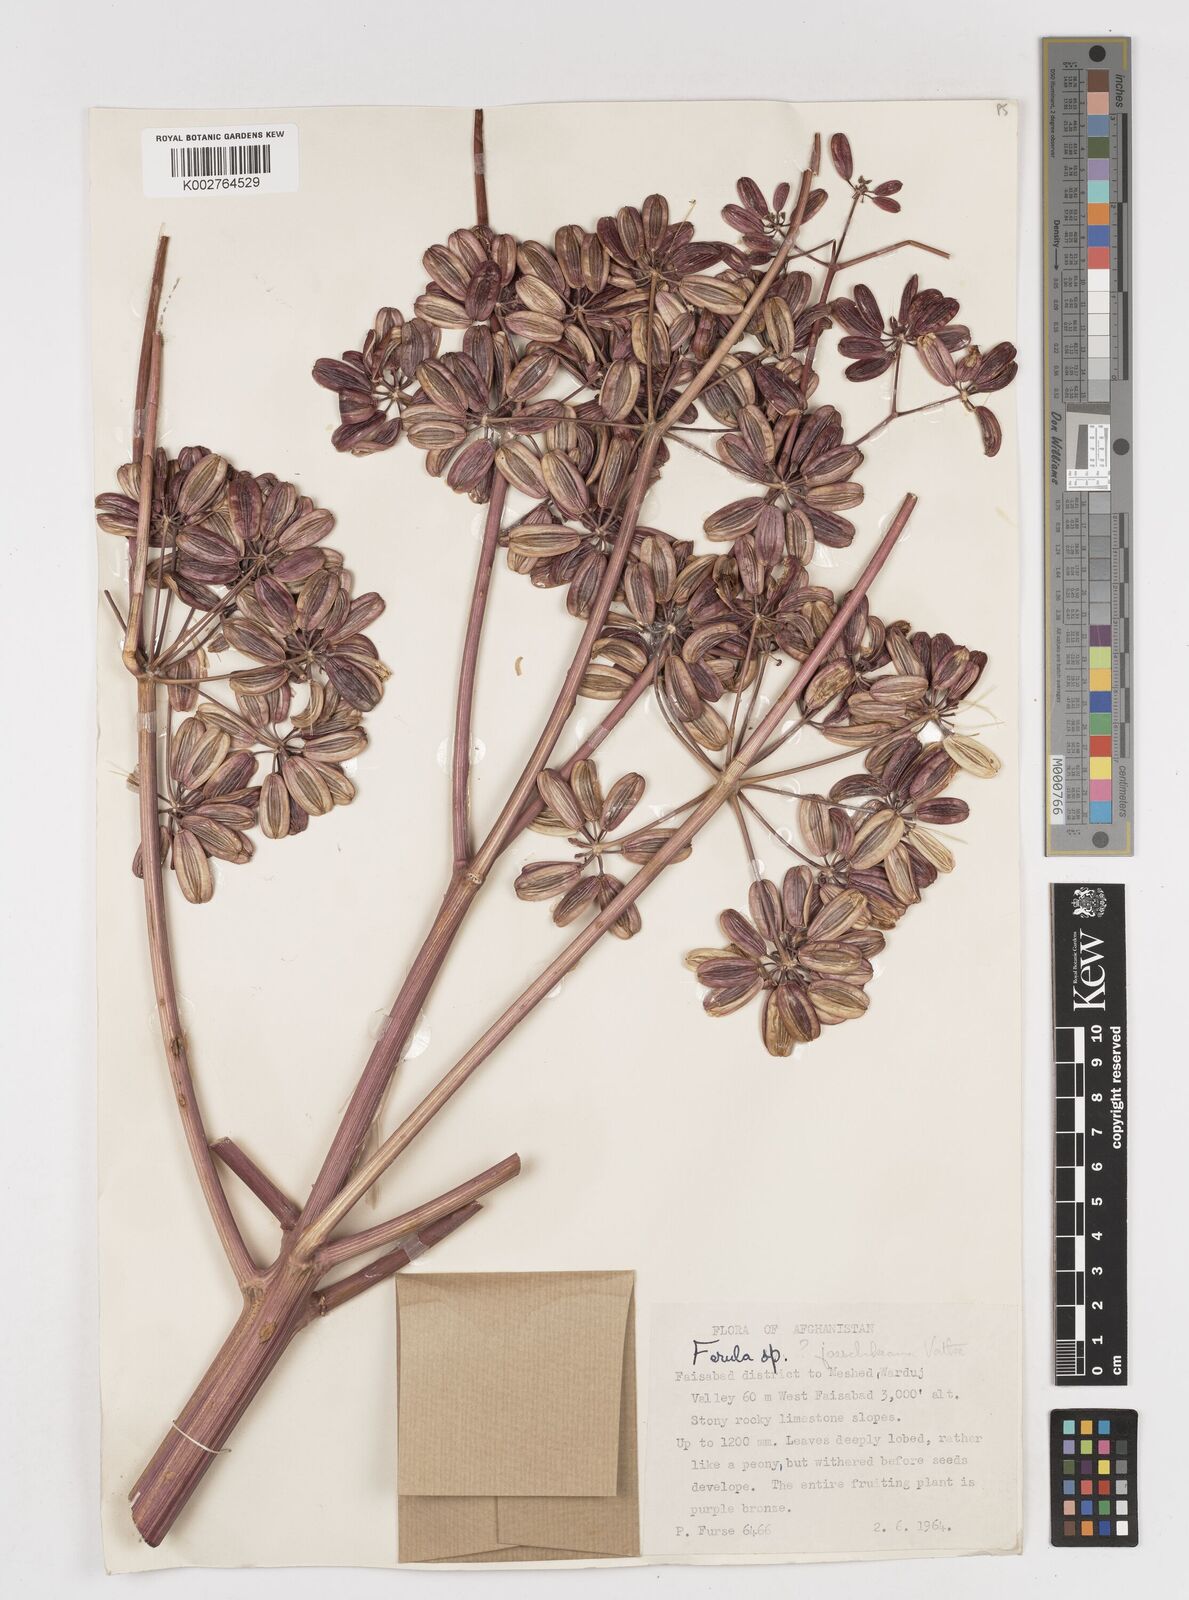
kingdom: Plantae
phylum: Tracheophyta
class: Magnoliopsida
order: Apiales
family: Apiaceae
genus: Ferula
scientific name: Ferula jaeschkeana
